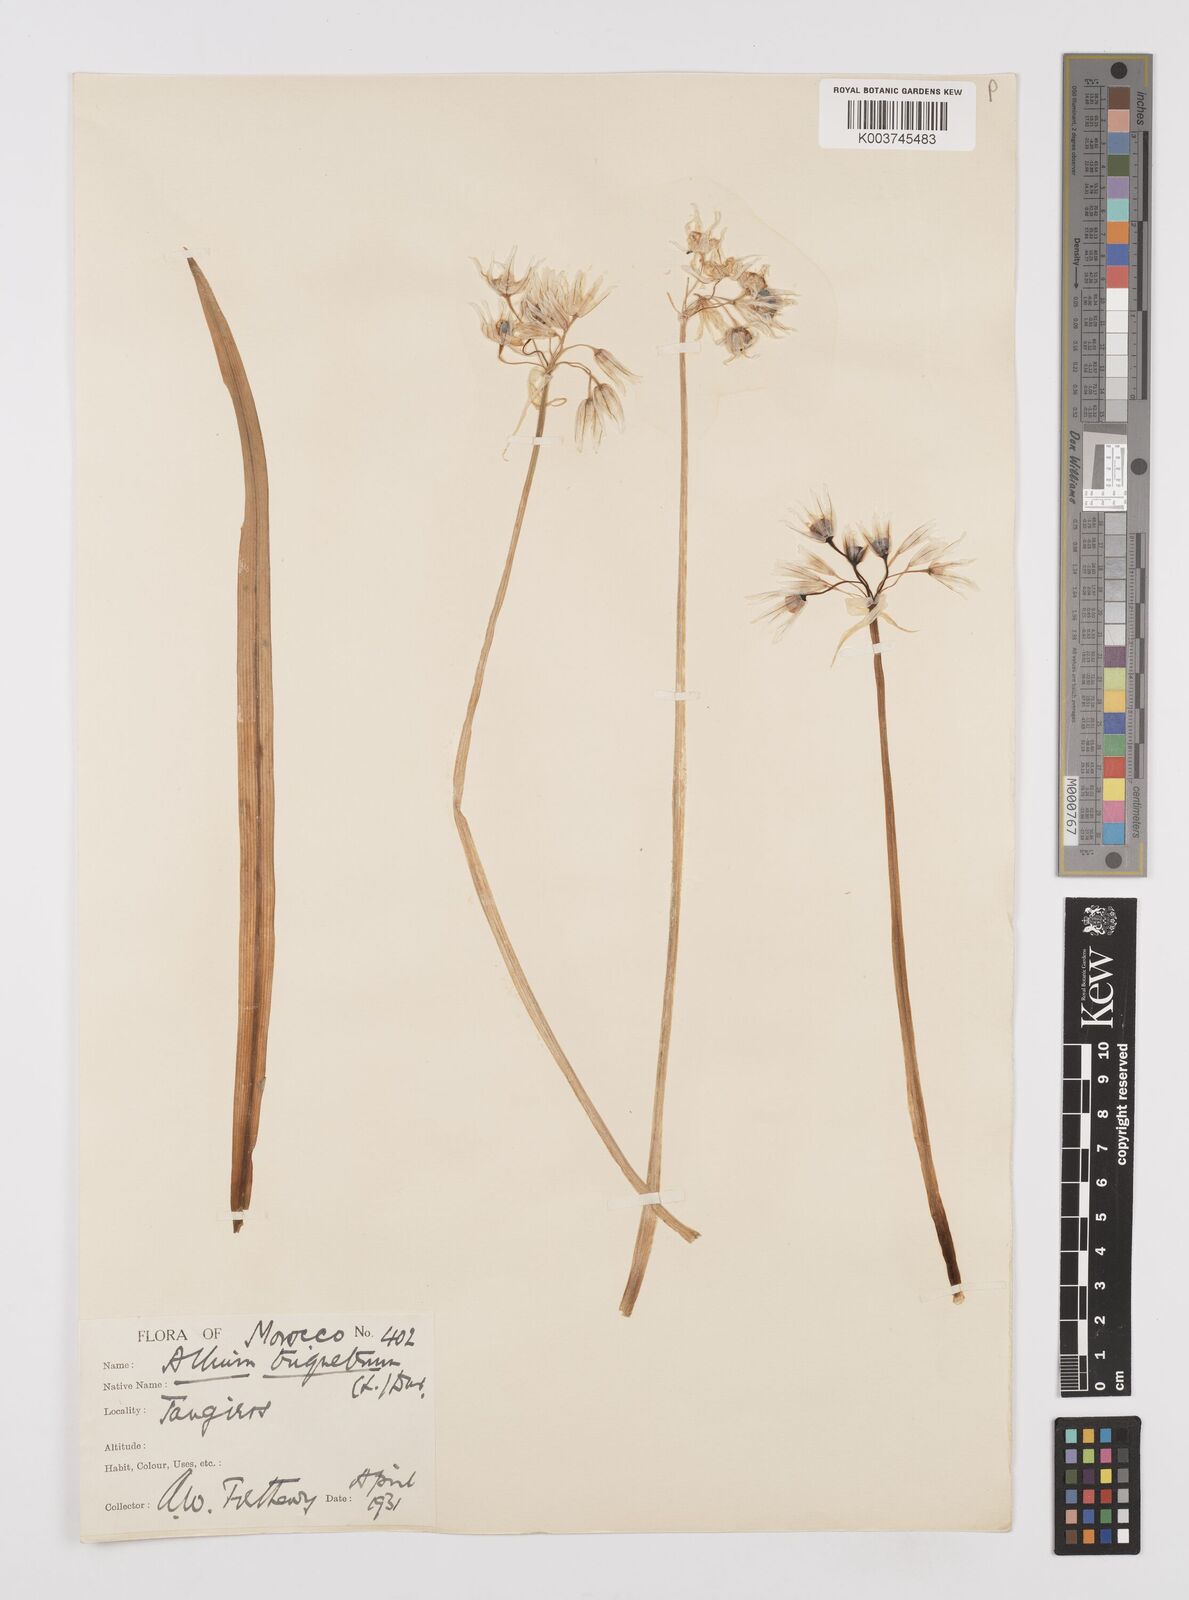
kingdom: Plantae
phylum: Tracheophyta
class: Liliopsida
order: Asparagales
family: Amaryllidaceae
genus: Allium
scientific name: Allium triquetrum
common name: Three-cornered garlic
